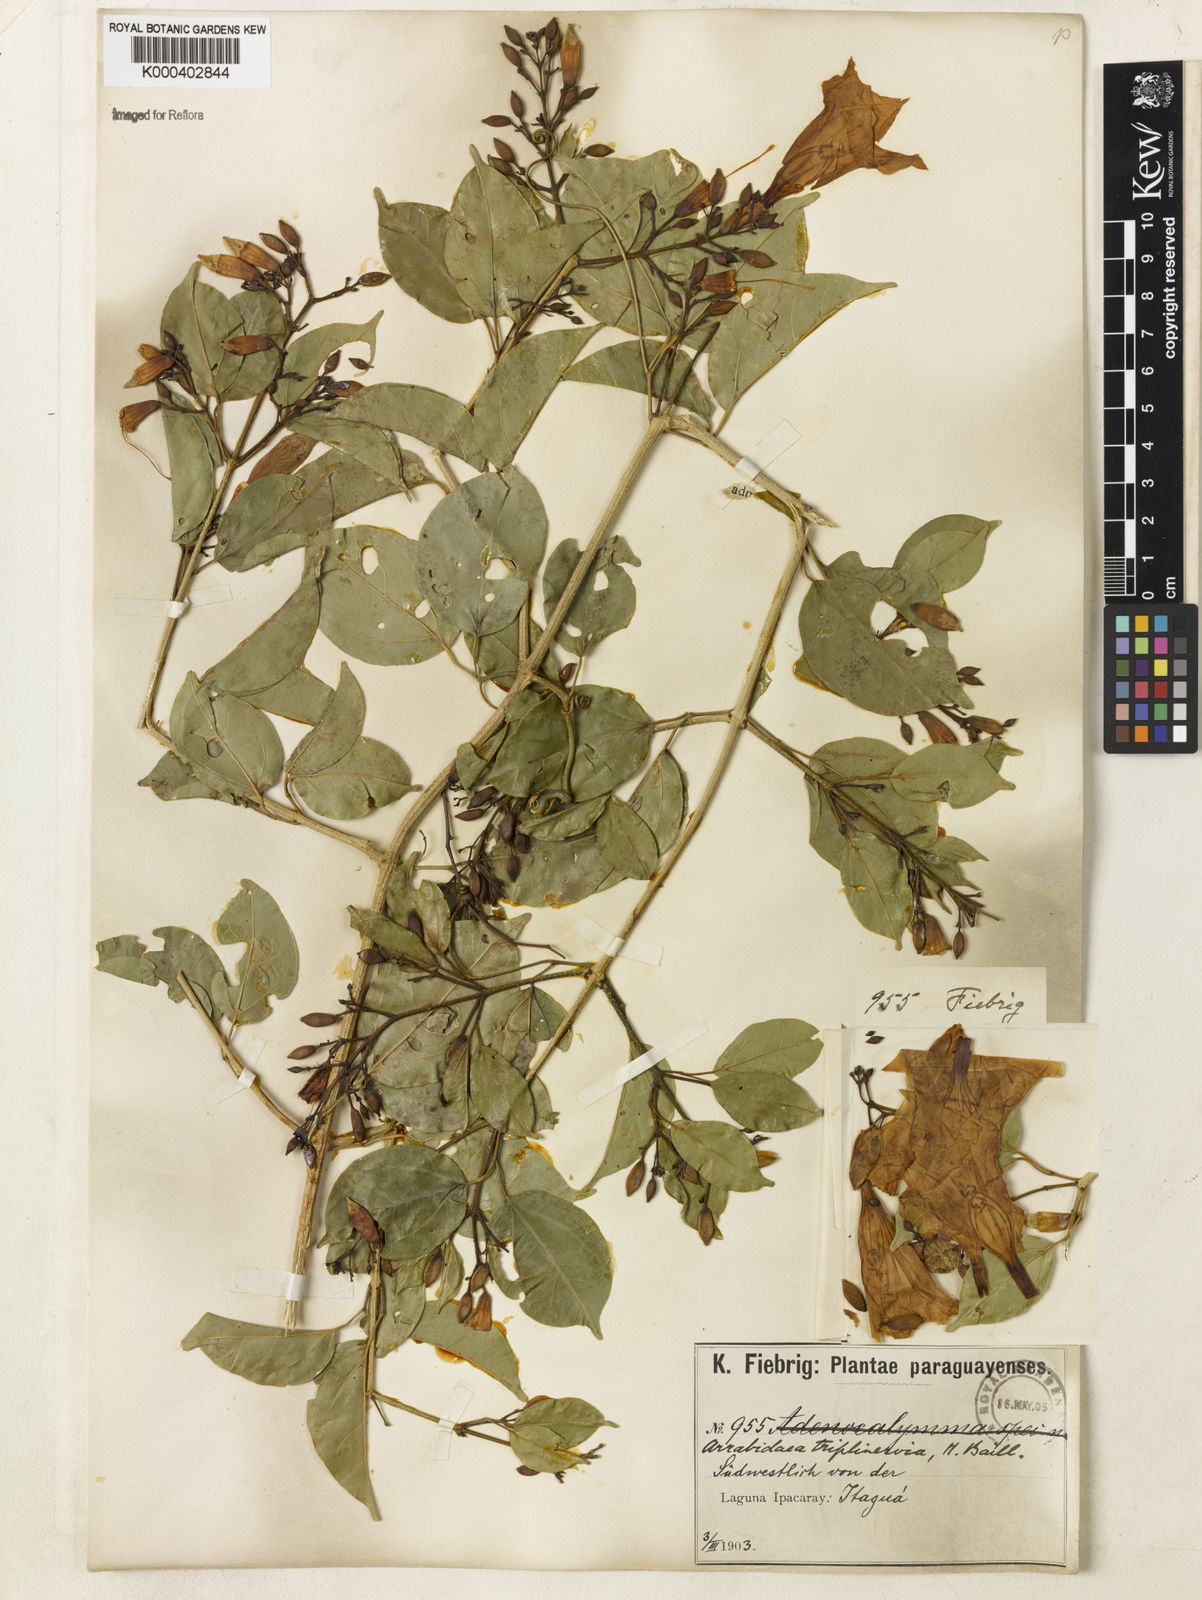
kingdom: Plantae
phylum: Tracheophyta
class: Magnoliopsida
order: Lamiales
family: Bignoniaceae
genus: Fridericia
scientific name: Fridericia triplinervia
